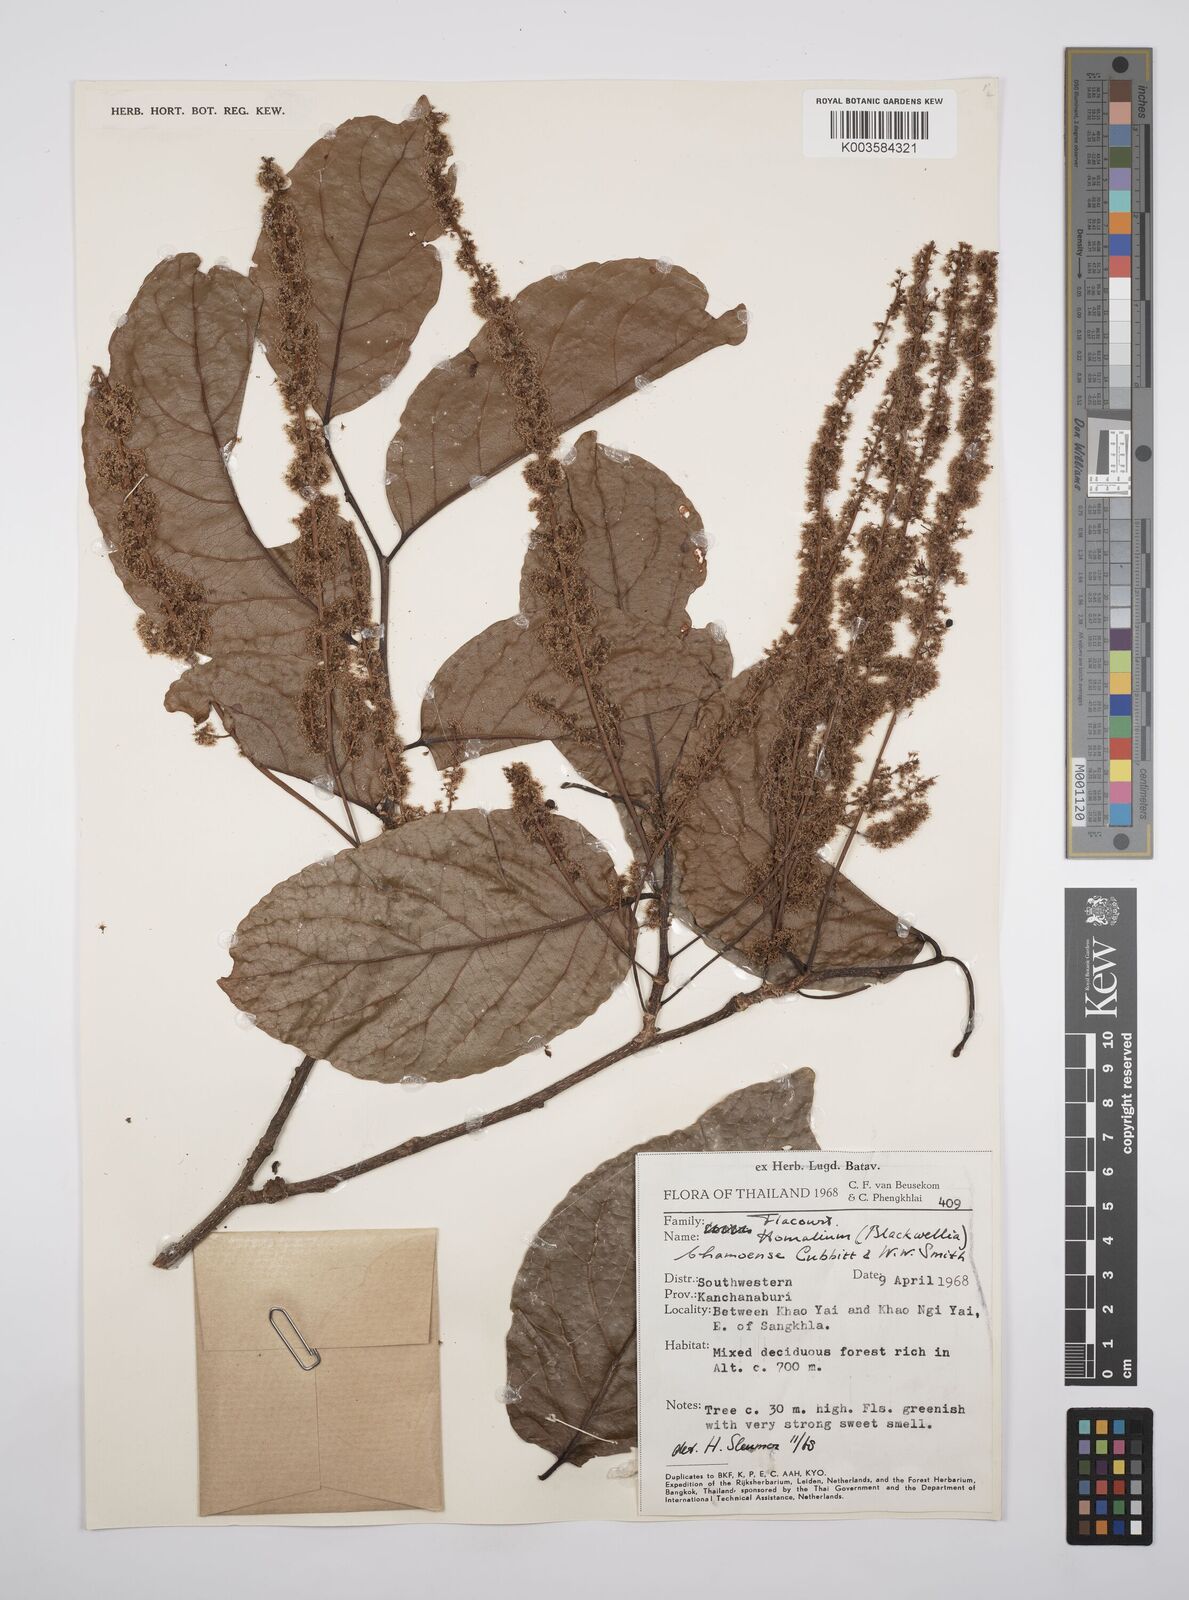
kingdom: Plantae
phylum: Tracheophyta
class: Magnoliopsida
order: Malpighiales
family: Salicaceae
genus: Homalium
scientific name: Homalium ceylanicum
